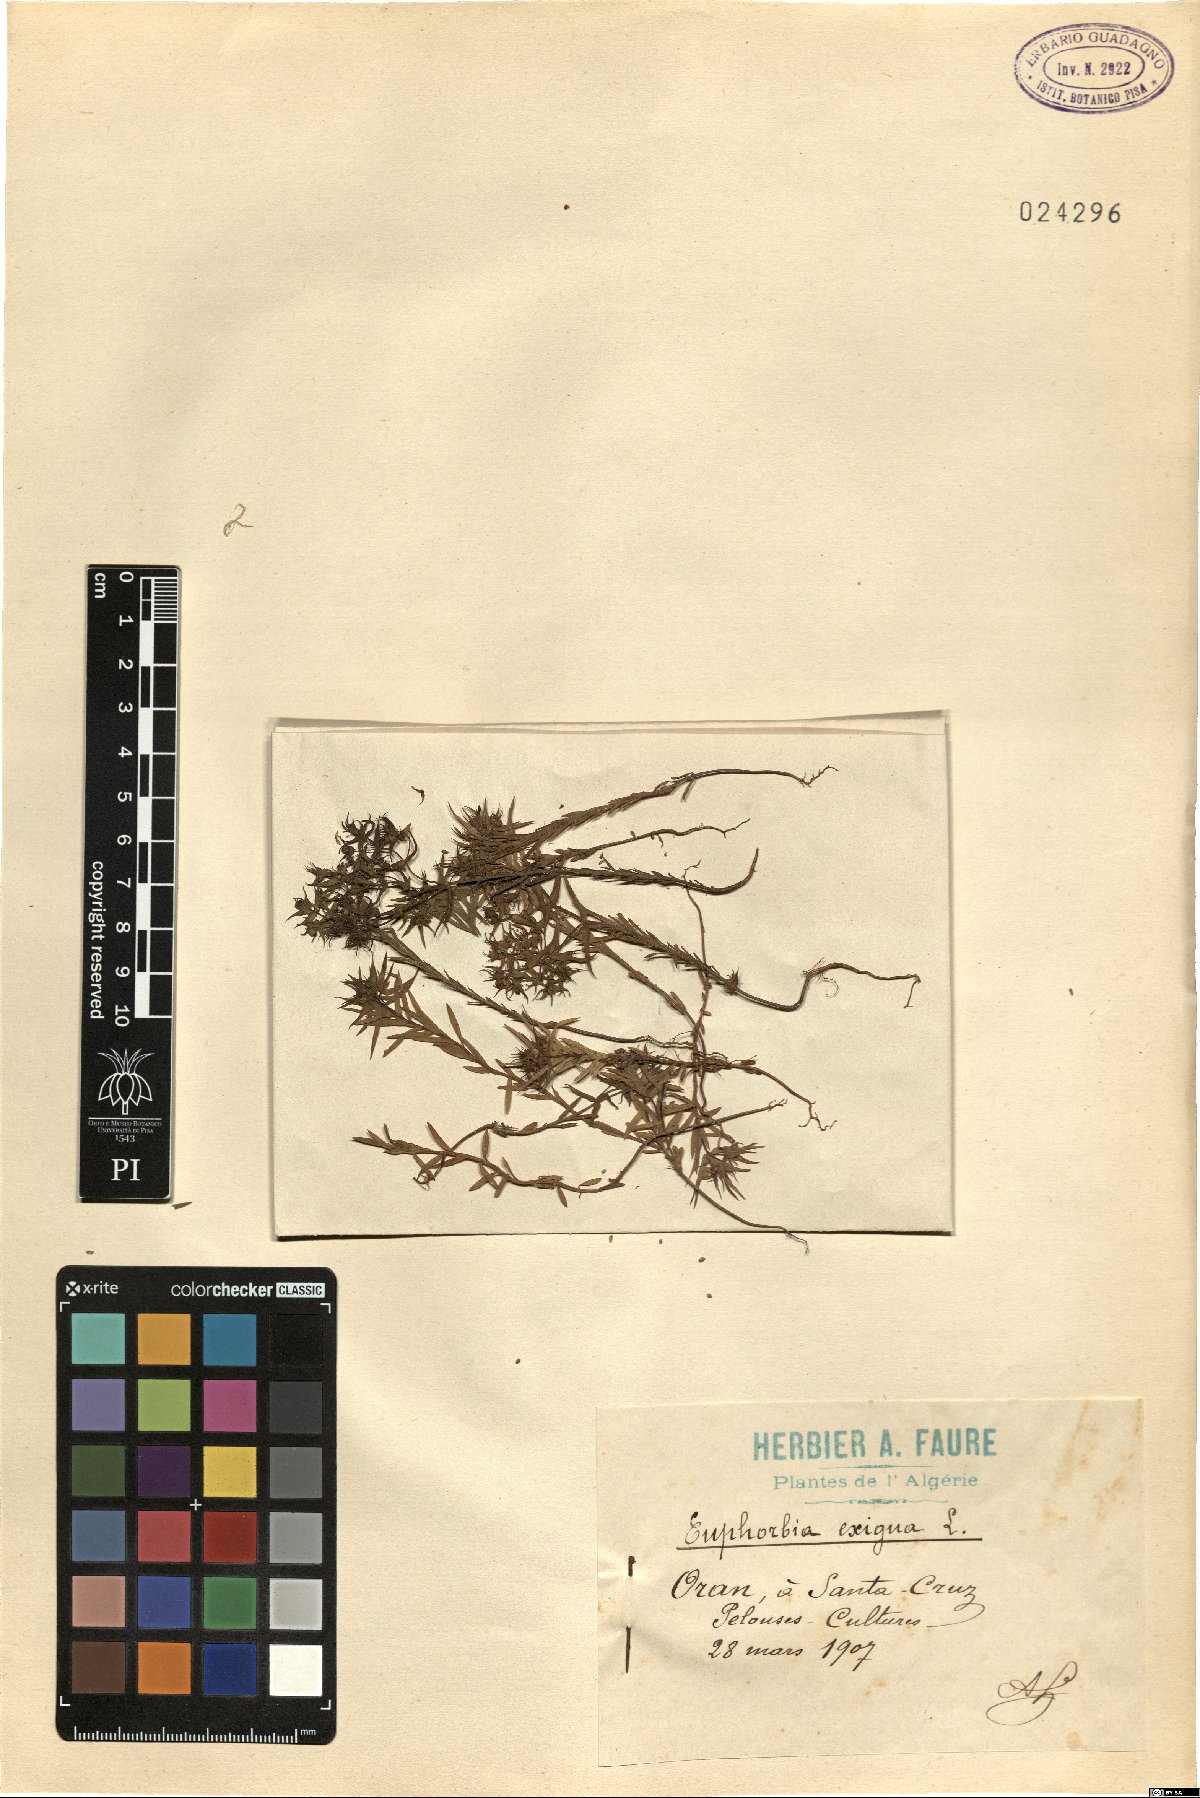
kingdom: Plantae
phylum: Tracheophyta
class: Magnoliopsida
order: Malpighiales
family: Euphorbiaceae
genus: Euphorbia
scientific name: Euphorbia exigua
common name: Dwarf spurge
